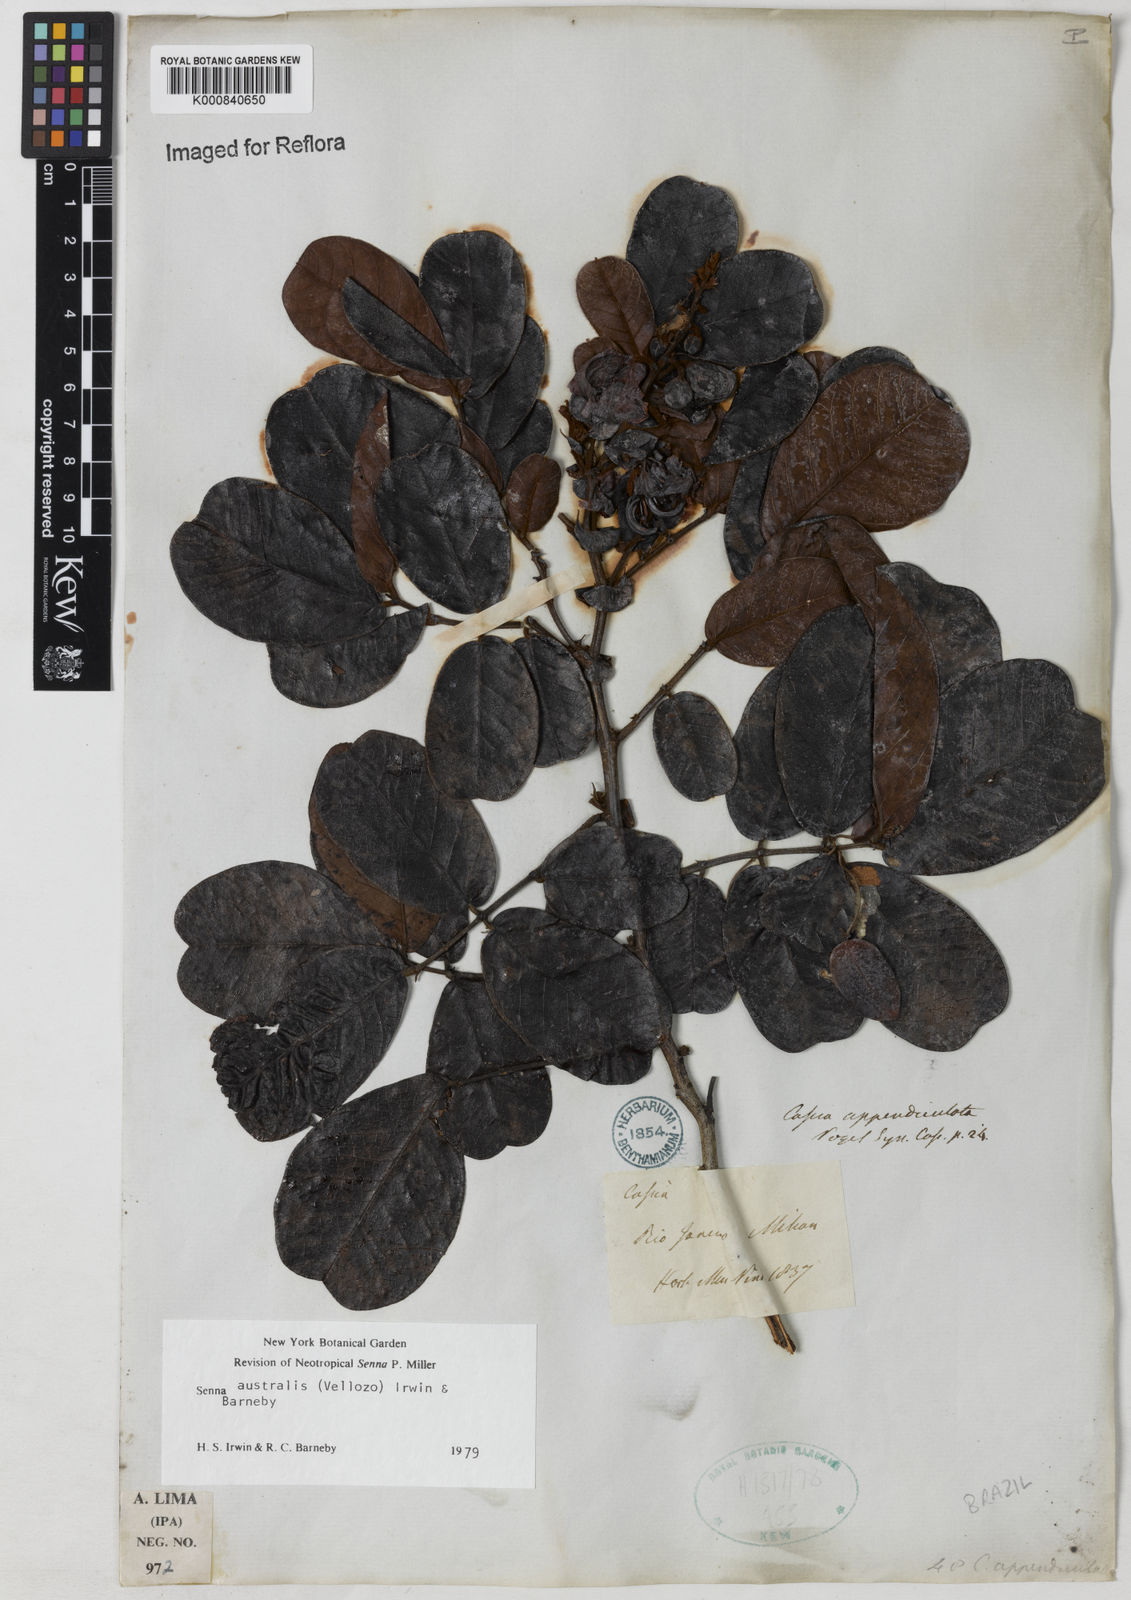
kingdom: Plantae
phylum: Tracheophyta
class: Magnoliopsida
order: Fabales
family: Fabaceae
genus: Senna
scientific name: Senna appendiculata
